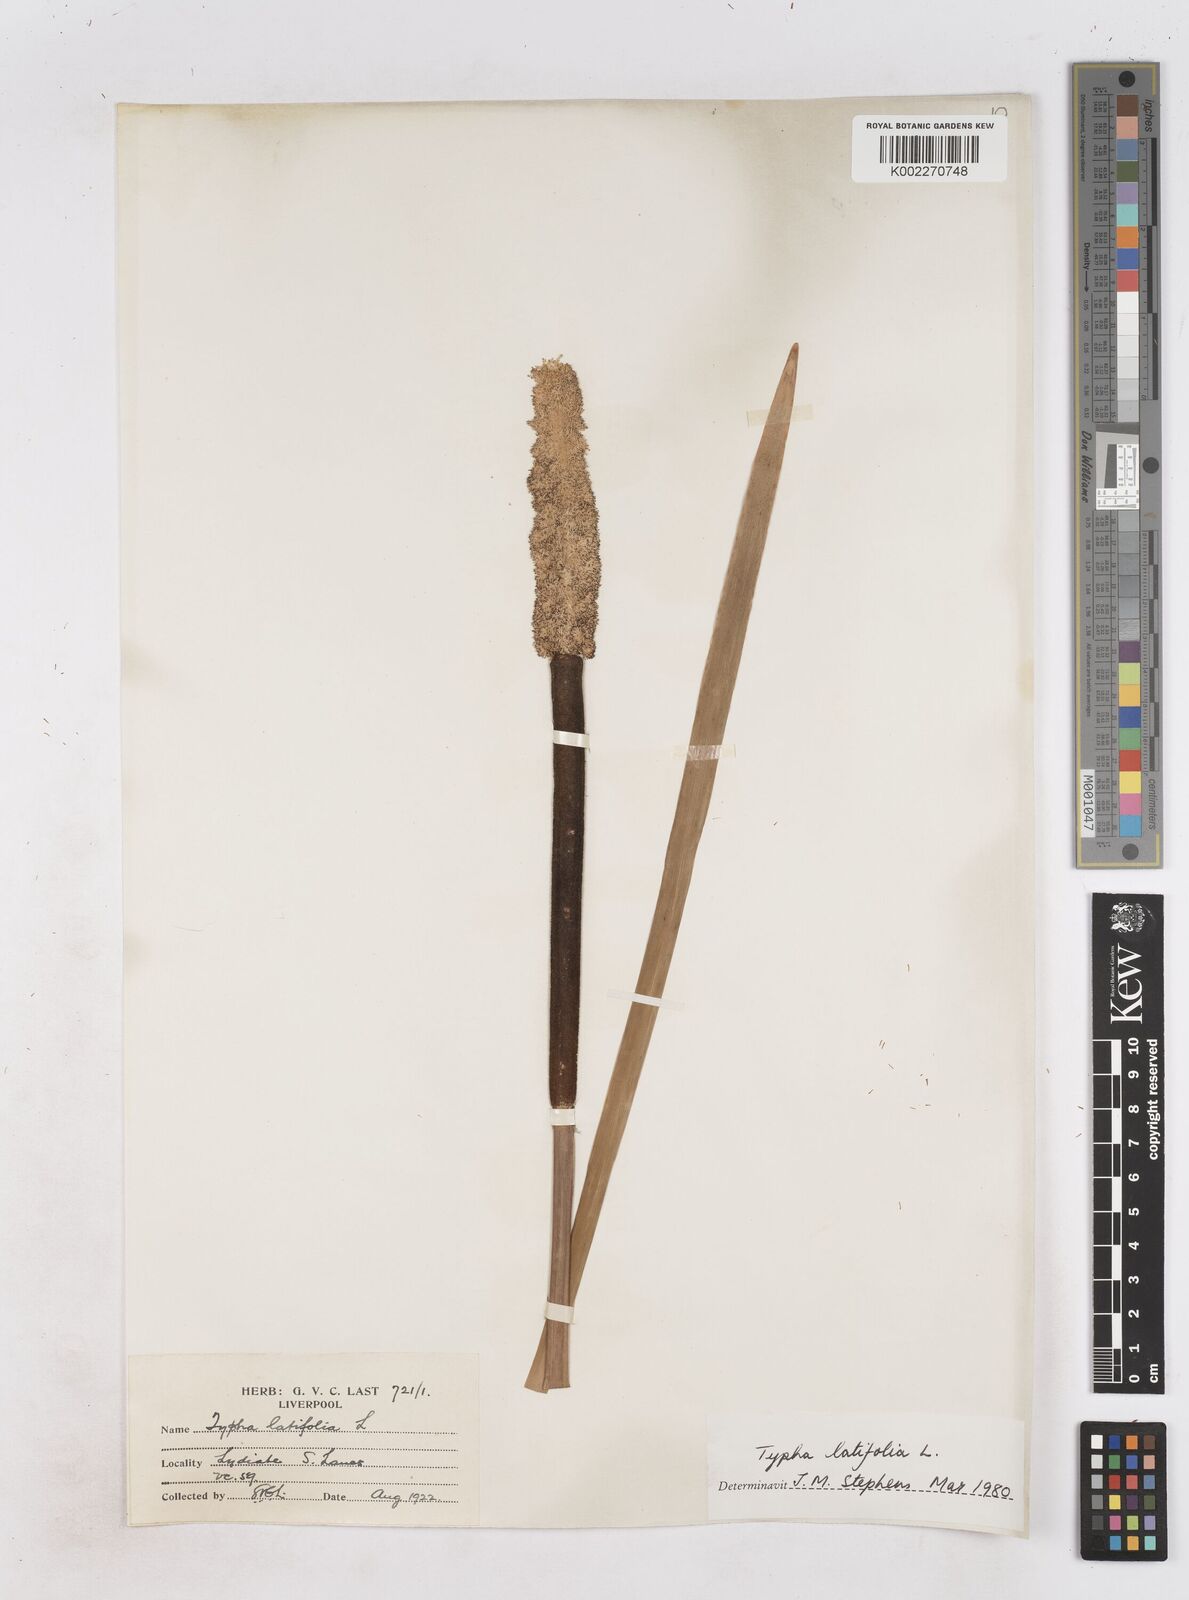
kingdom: Plantae
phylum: Tracheophyta
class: Liliopsida
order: Poales
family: Typhaceae
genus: Typha
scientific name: Typha latifolia
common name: Broadleaf cattail
